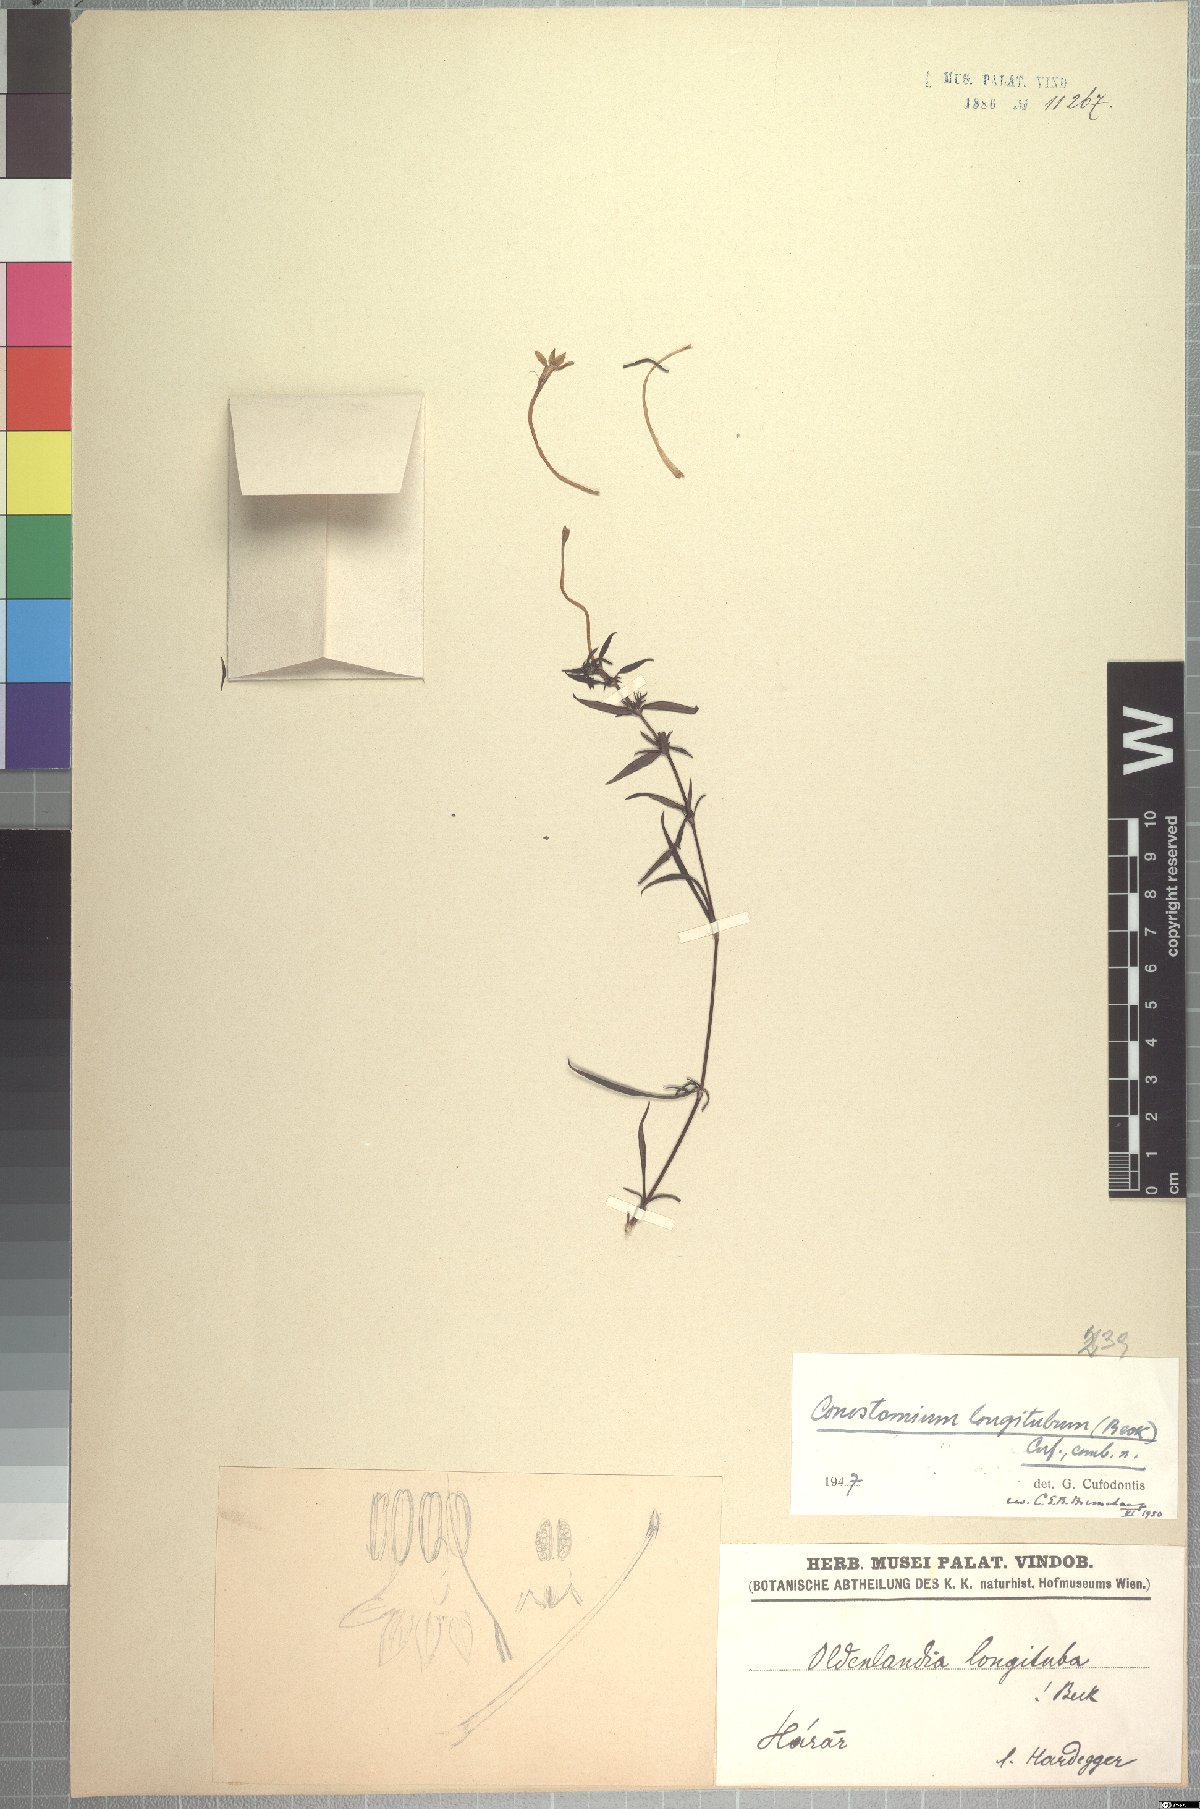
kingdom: Plantae
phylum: Tracheophyta
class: Magnoliopsida
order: Gentianales
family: Rubiaceae
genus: Conostomium
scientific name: Conostomium longitubum
